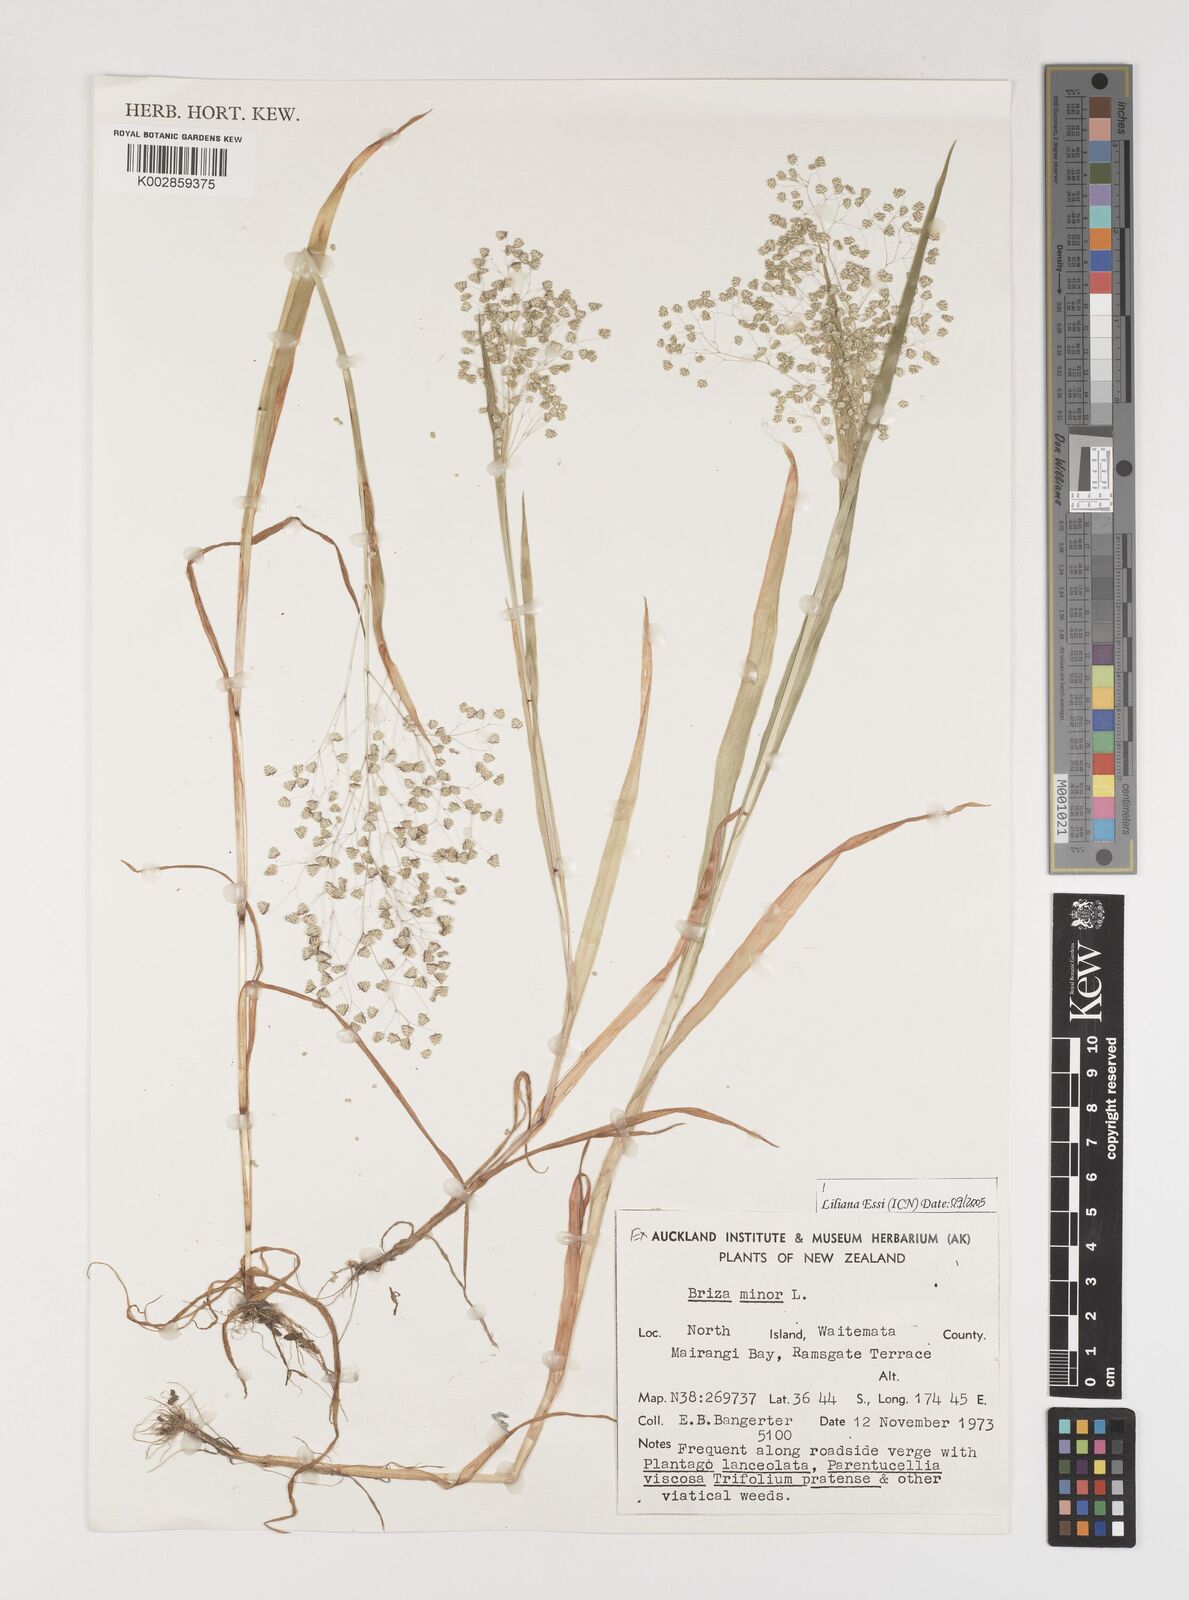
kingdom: Plantae
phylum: Tracheophyta
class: Liliopsida
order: Poales
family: Poaceae
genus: Briza
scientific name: Briza minor
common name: Lesser quaking-grass
